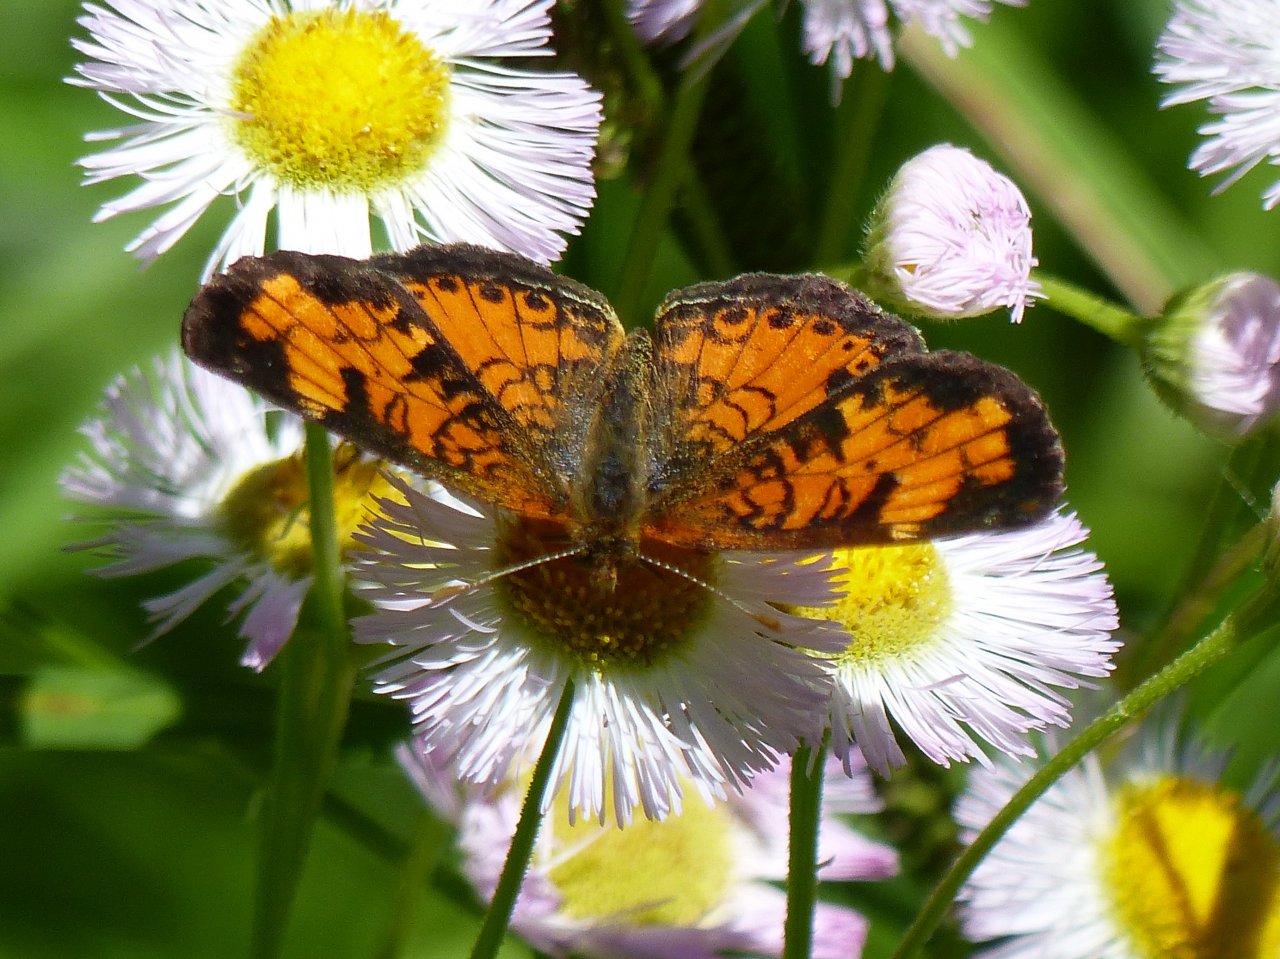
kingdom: Animalia
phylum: Arthropoda
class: Insecta
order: Lepidoptera
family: Nymphalidae
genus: Phyciodes
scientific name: Phyciodes tharos
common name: Northern Crescent
